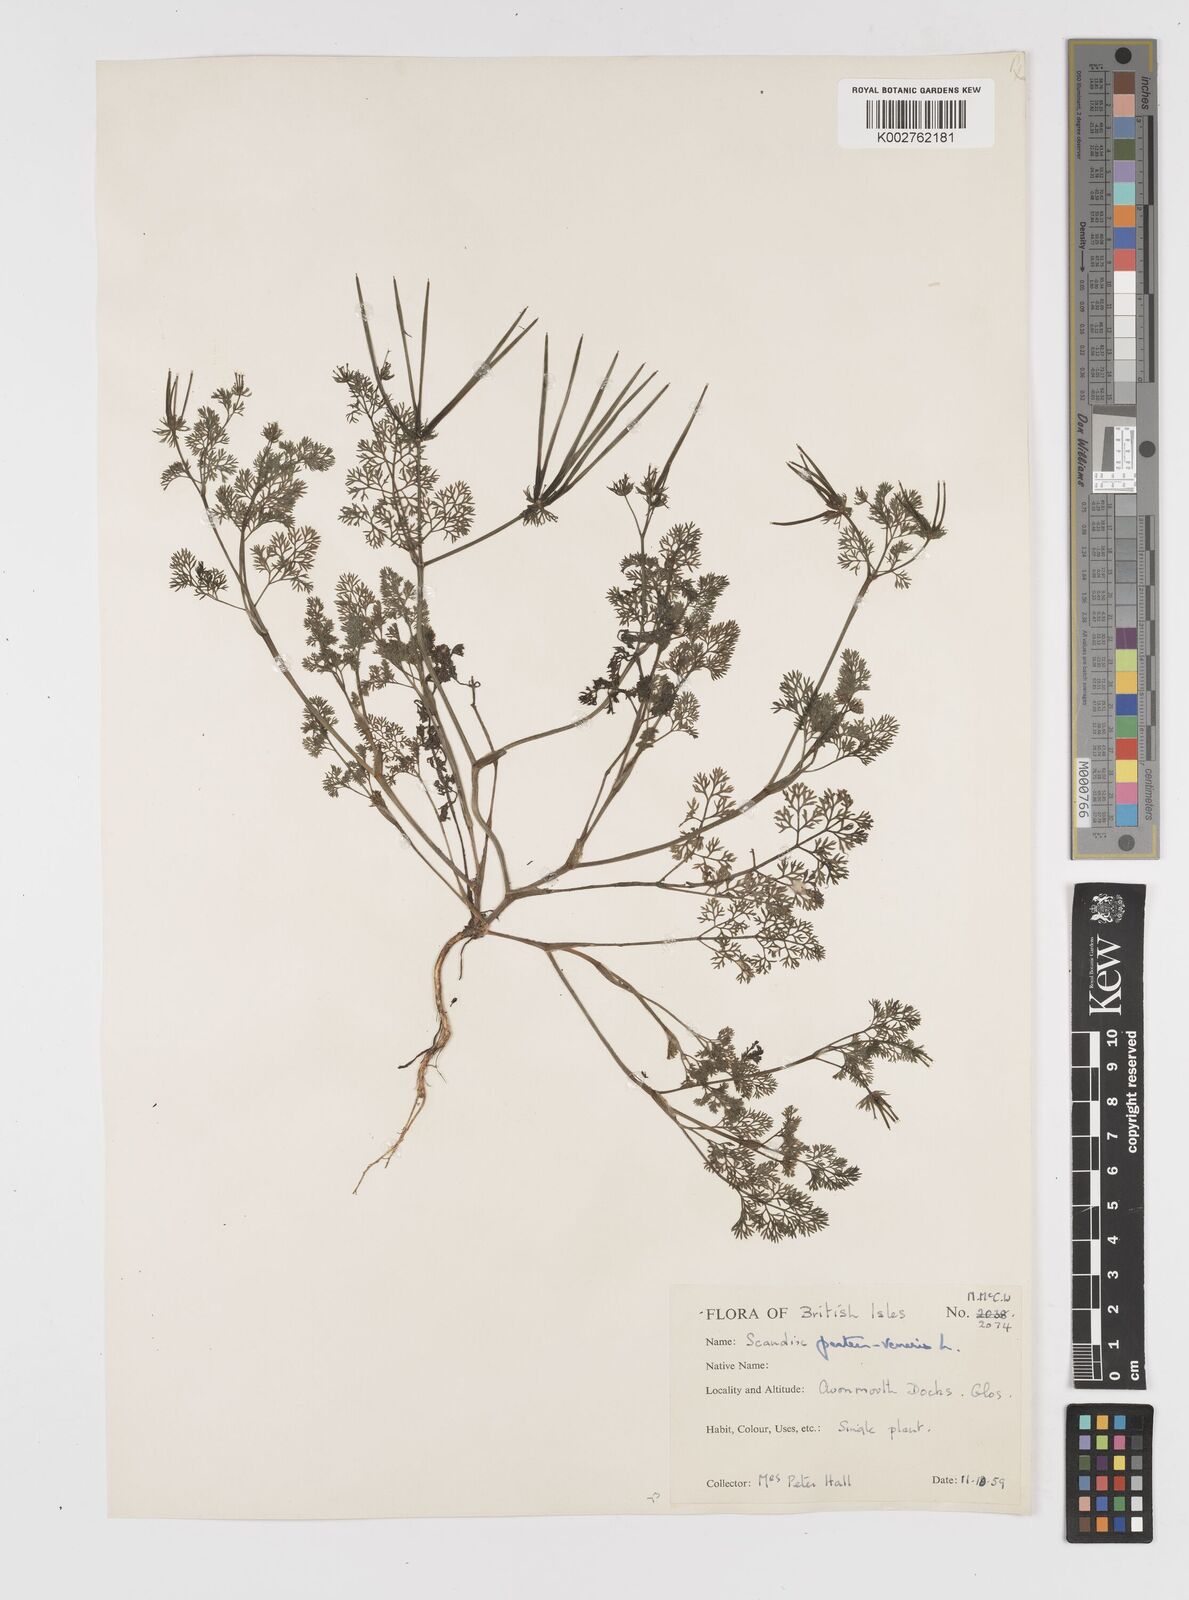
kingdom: Plantae
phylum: Tracheophyta
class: Magnoliopsida
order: Apiales
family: Apiaceae
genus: Scandix
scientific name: Scandix pecten-veneris
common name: Shepherd's-needle
